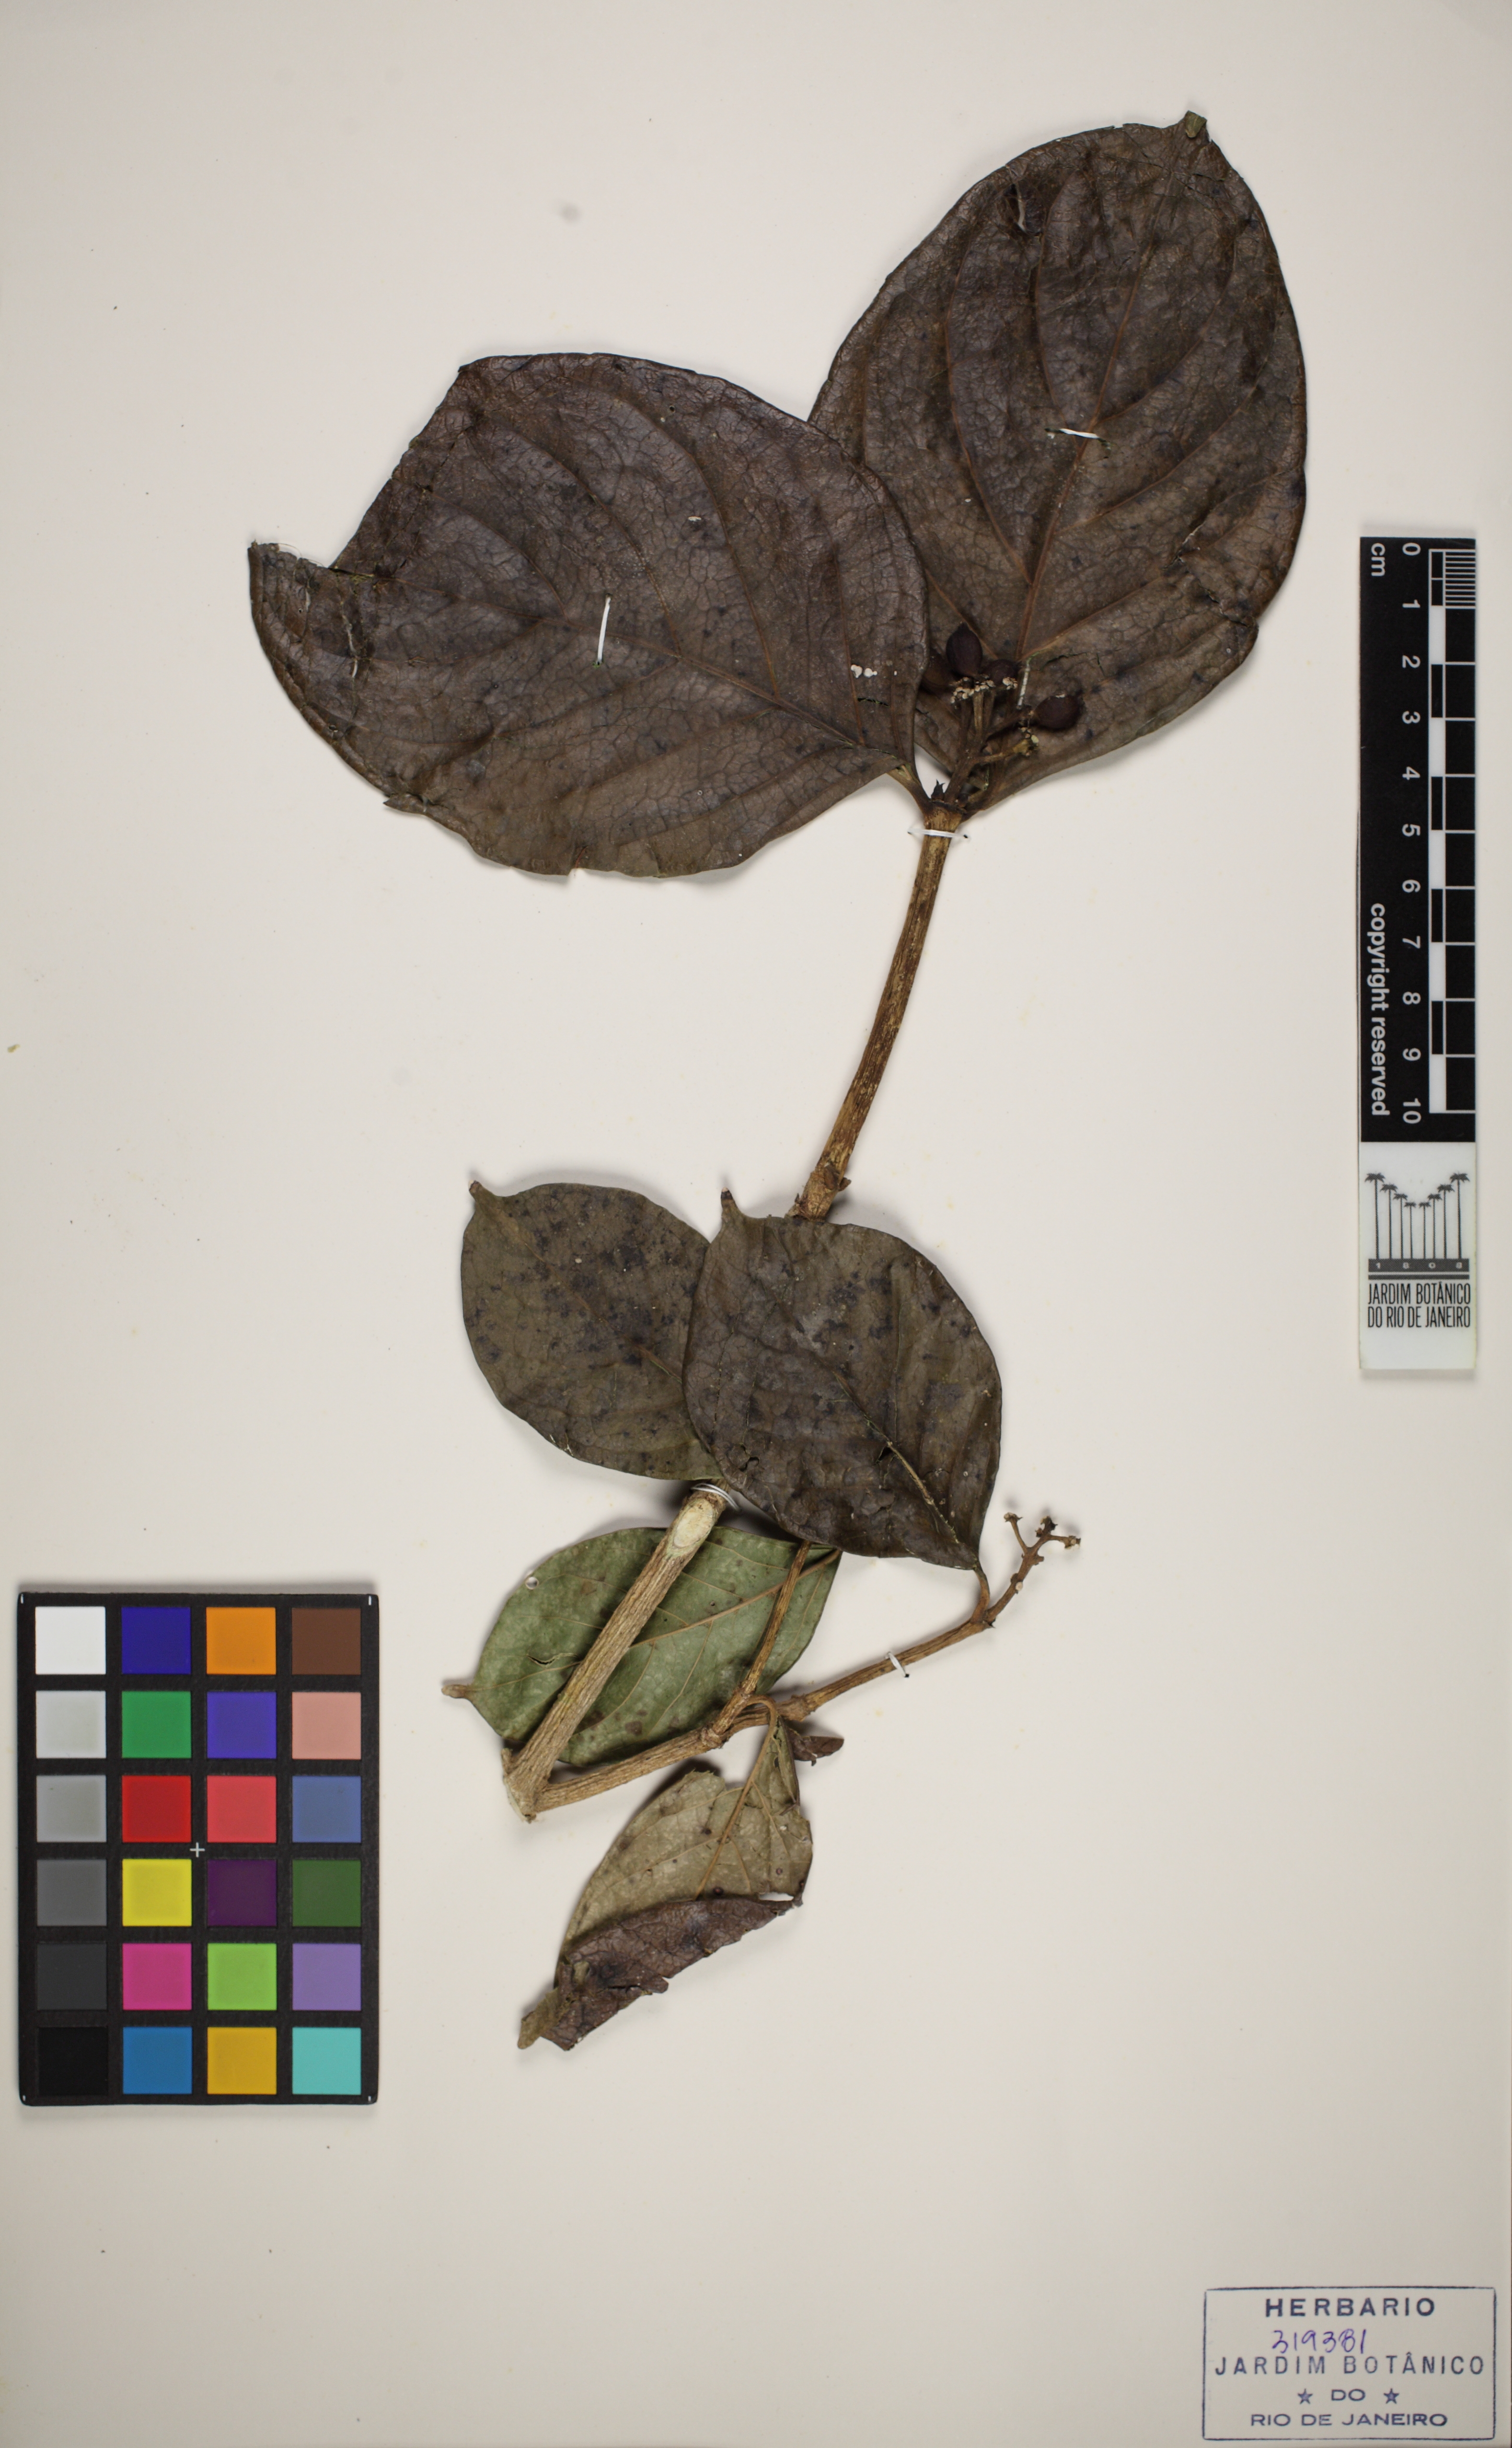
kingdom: Plantae
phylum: Tracheophyta
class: Magnoliopsida
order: Gentianales
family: Rubiaceae
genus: Coussarea
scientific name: Coussarea hydrangeifolia
